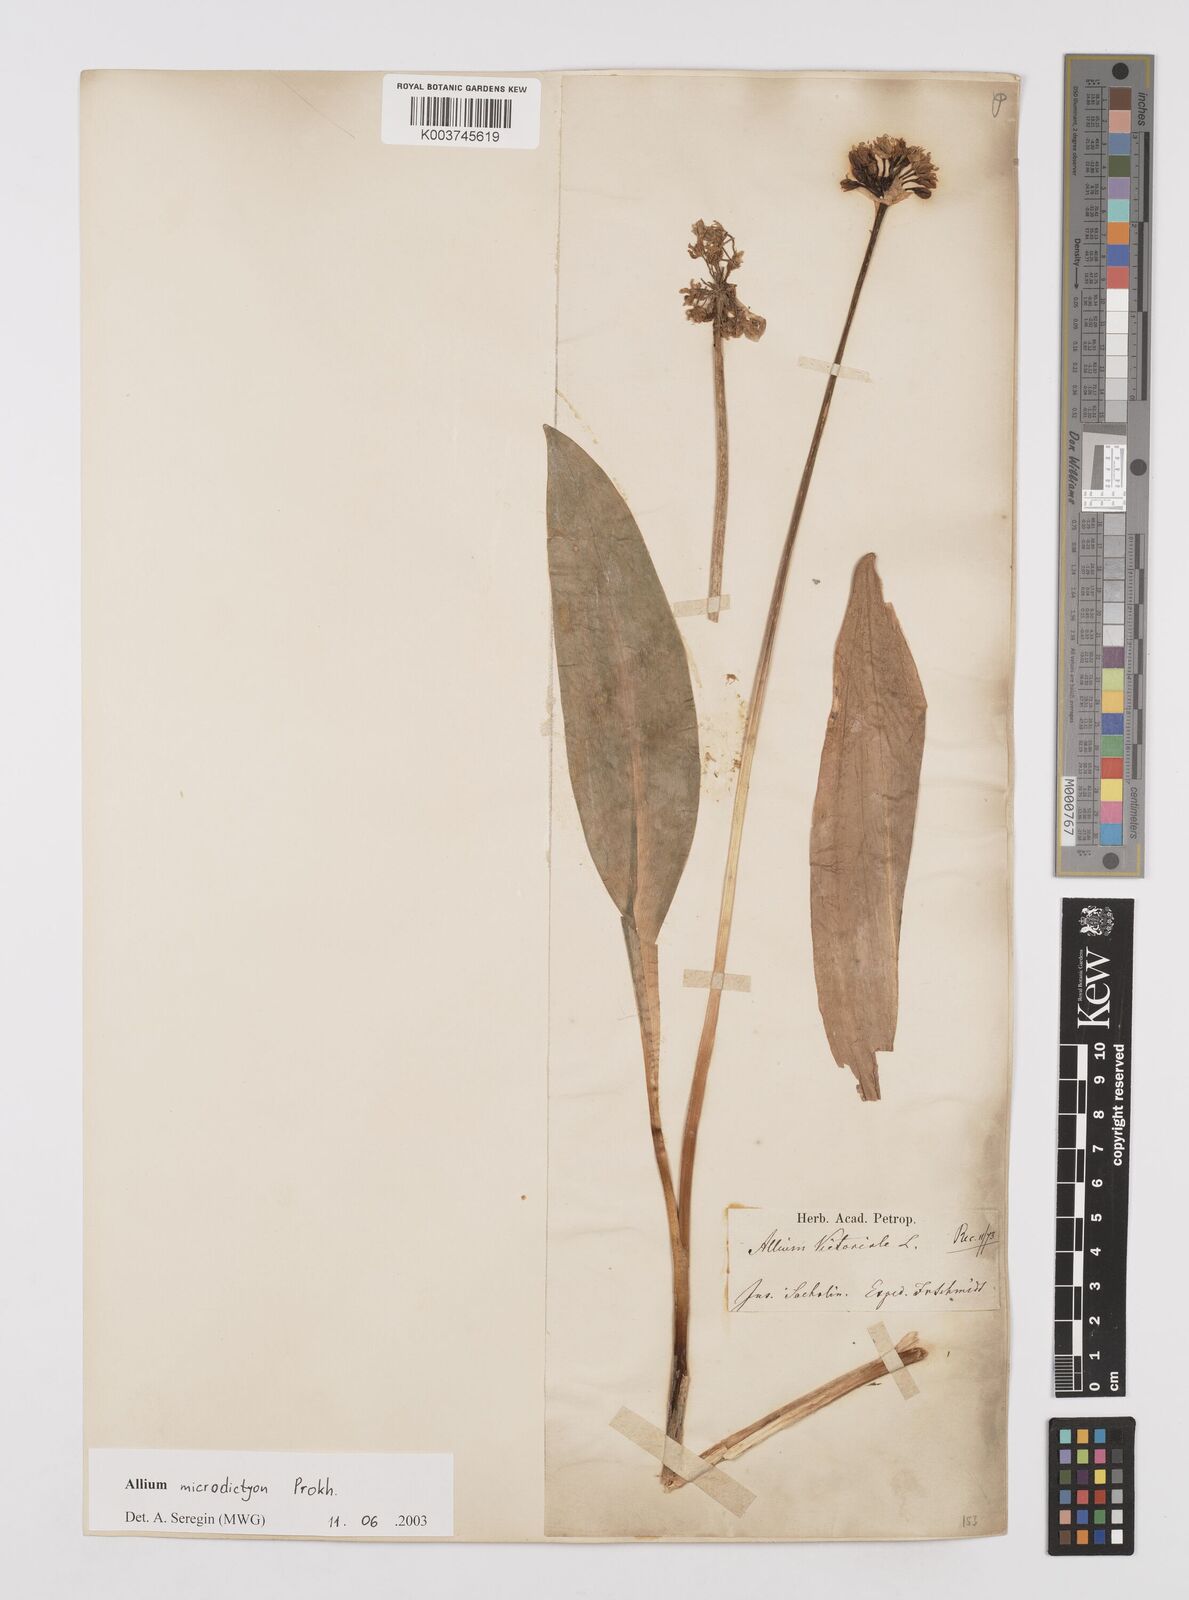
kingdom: Plantae
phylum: Tracheophyta
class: Liliopsida
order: Asparagales
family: Amaryllidaceae
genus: Allium
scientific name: Allium victorialis
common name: Alpine leek
